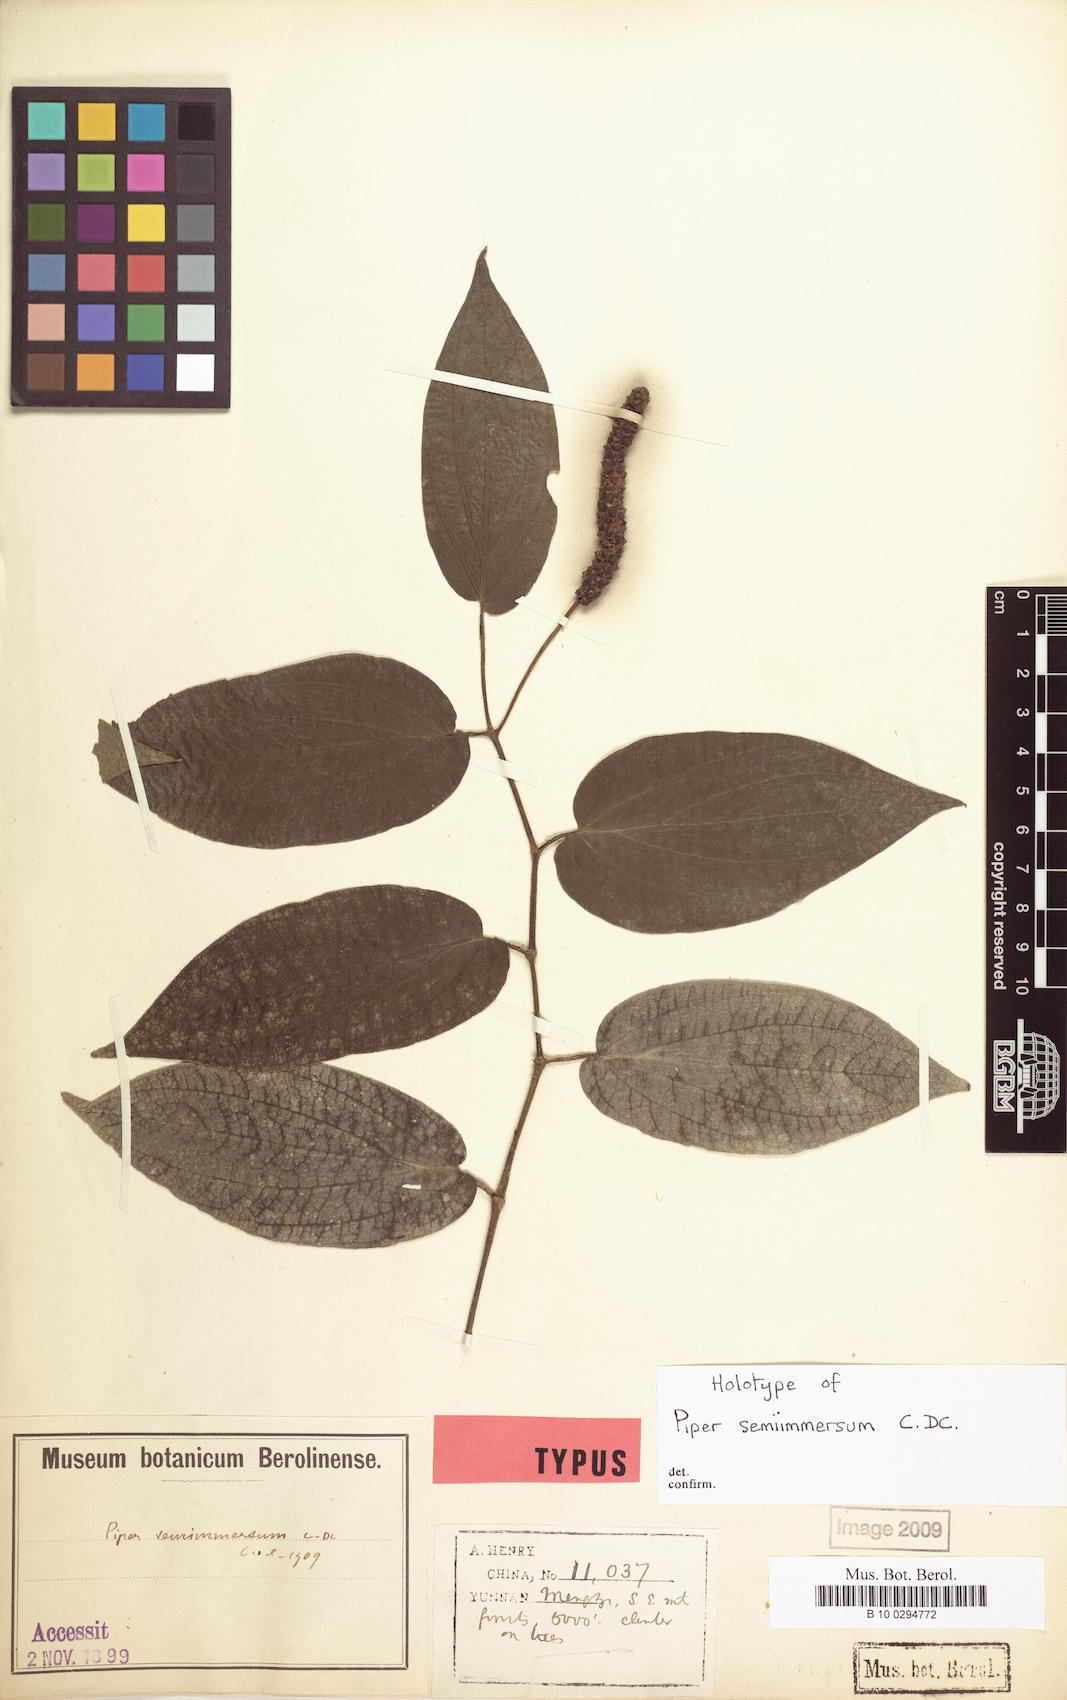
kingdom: Plantae
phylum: Tracheophyta
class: Magnoliopsida
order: Piperales
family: Piperaceae
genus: Piper
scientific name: Piper semiimmersum
